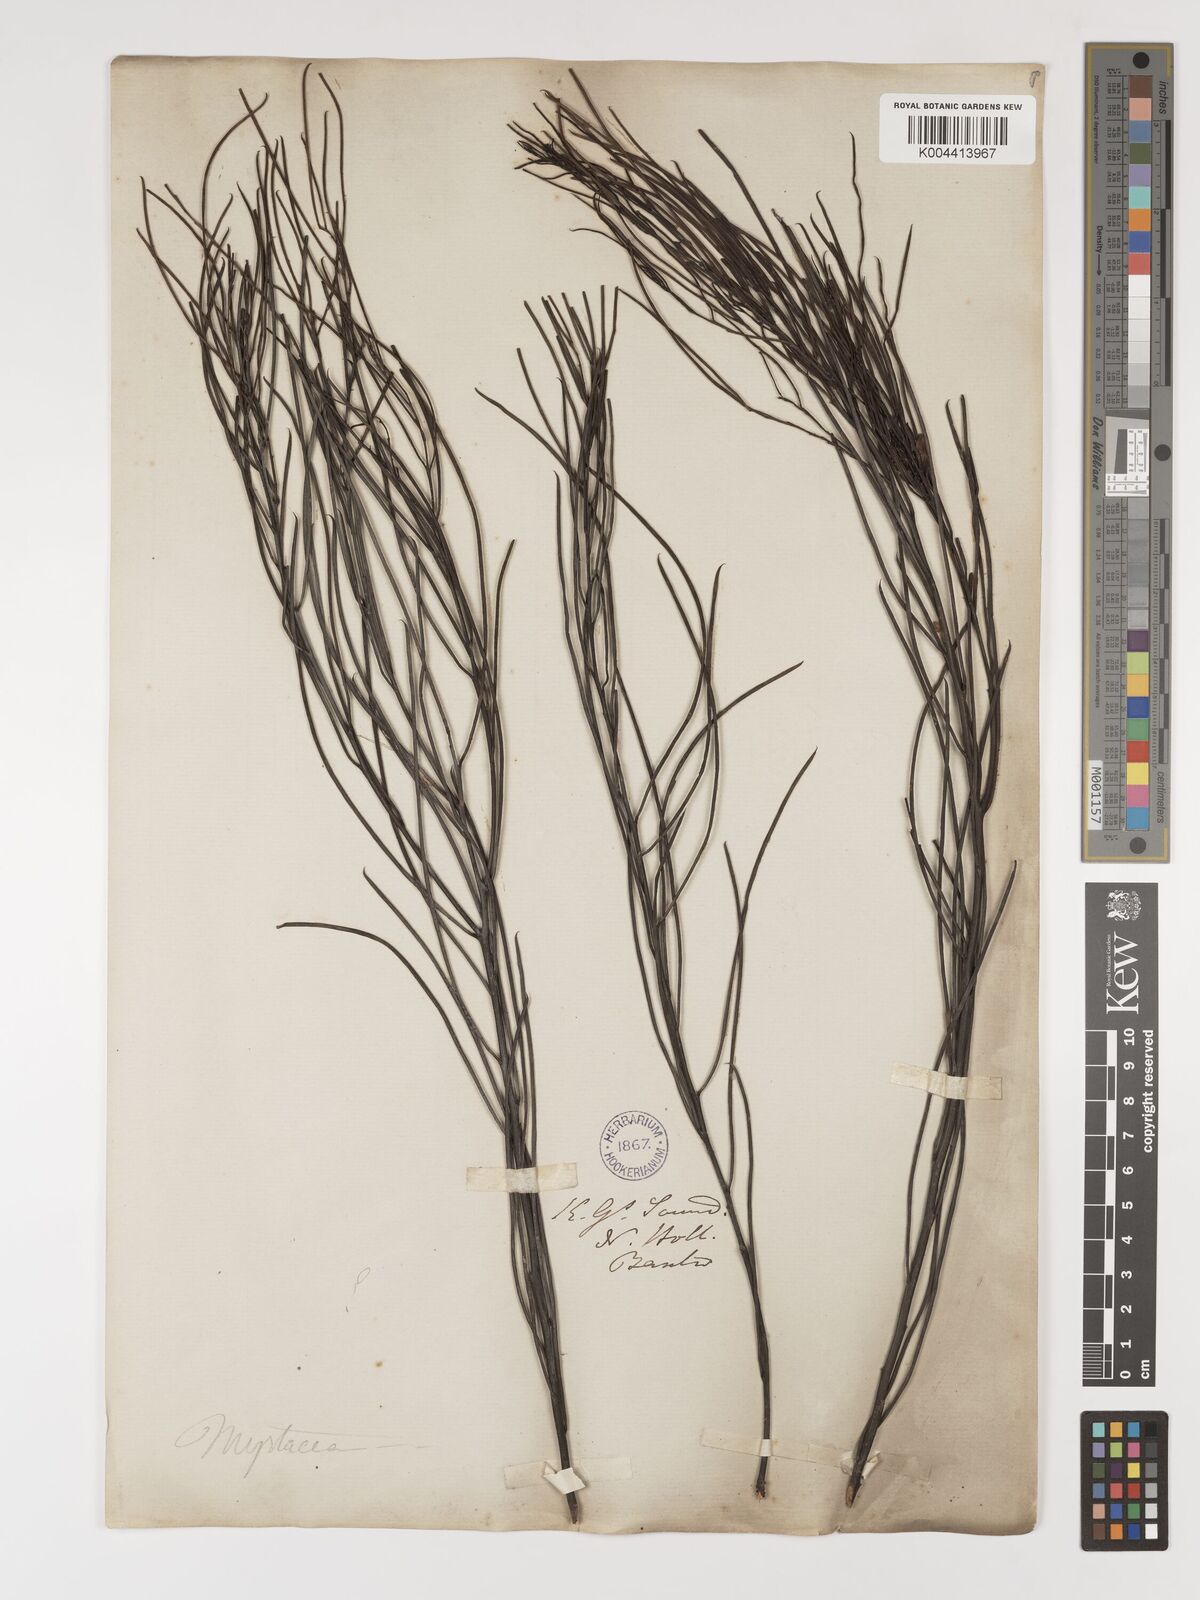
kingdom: Plantae
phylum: Tracheophyta
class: Magnoliopsida
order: Myrtales
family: Myrtaceae
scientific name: Myrtaceae
